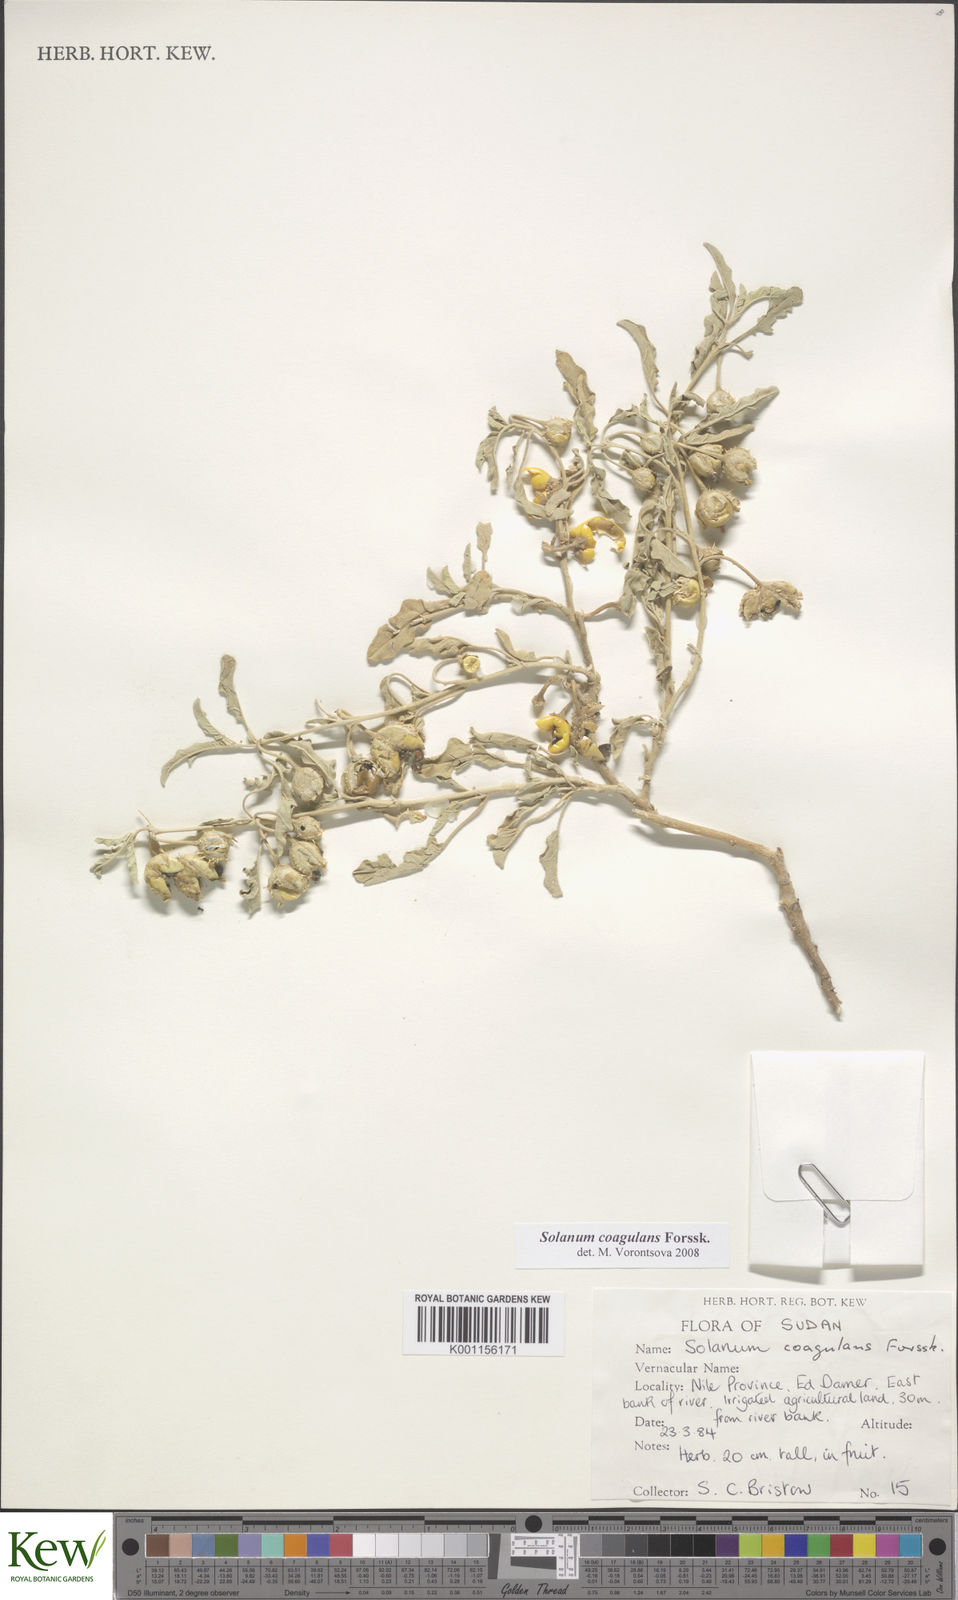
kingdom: Plantae
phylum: Tracheophyta
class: Magnoliopsida
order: Solanales
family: Solanaceae
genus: Solanum
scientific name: Solanum coagulans
